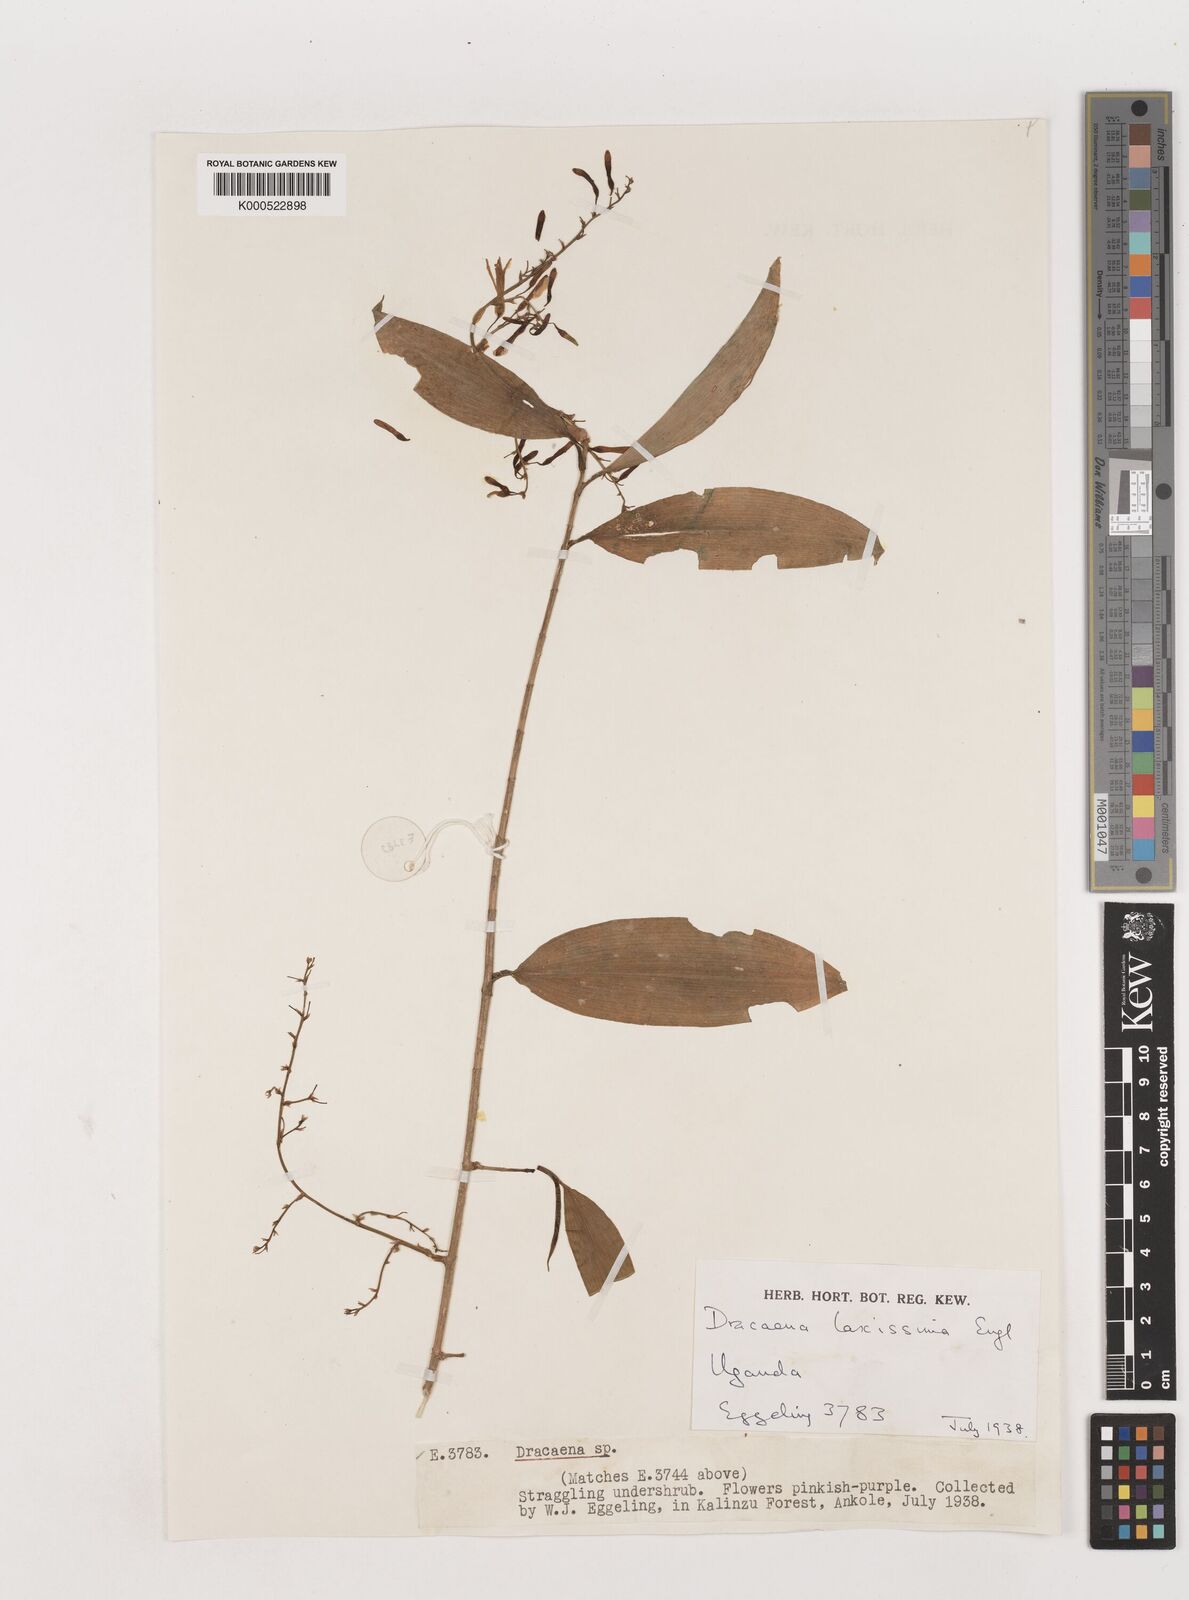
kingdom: Plantae
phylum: Tracheophyta
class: Liliopsida
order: Asparagales
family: Asparagaceae
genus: Dracaena
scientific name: Dracaena laxissima
